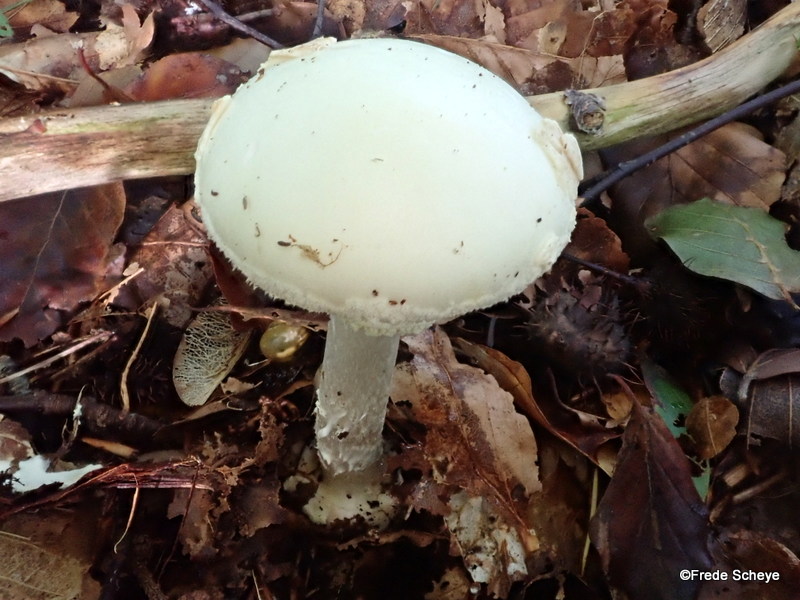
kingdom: Fungi
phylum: Basidiomycota
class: Agaricomycetes
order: Agaricales
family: Amanitaceae
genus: Amanita
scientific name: Amanita citrina
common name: kugleknoldet fluesvamp
